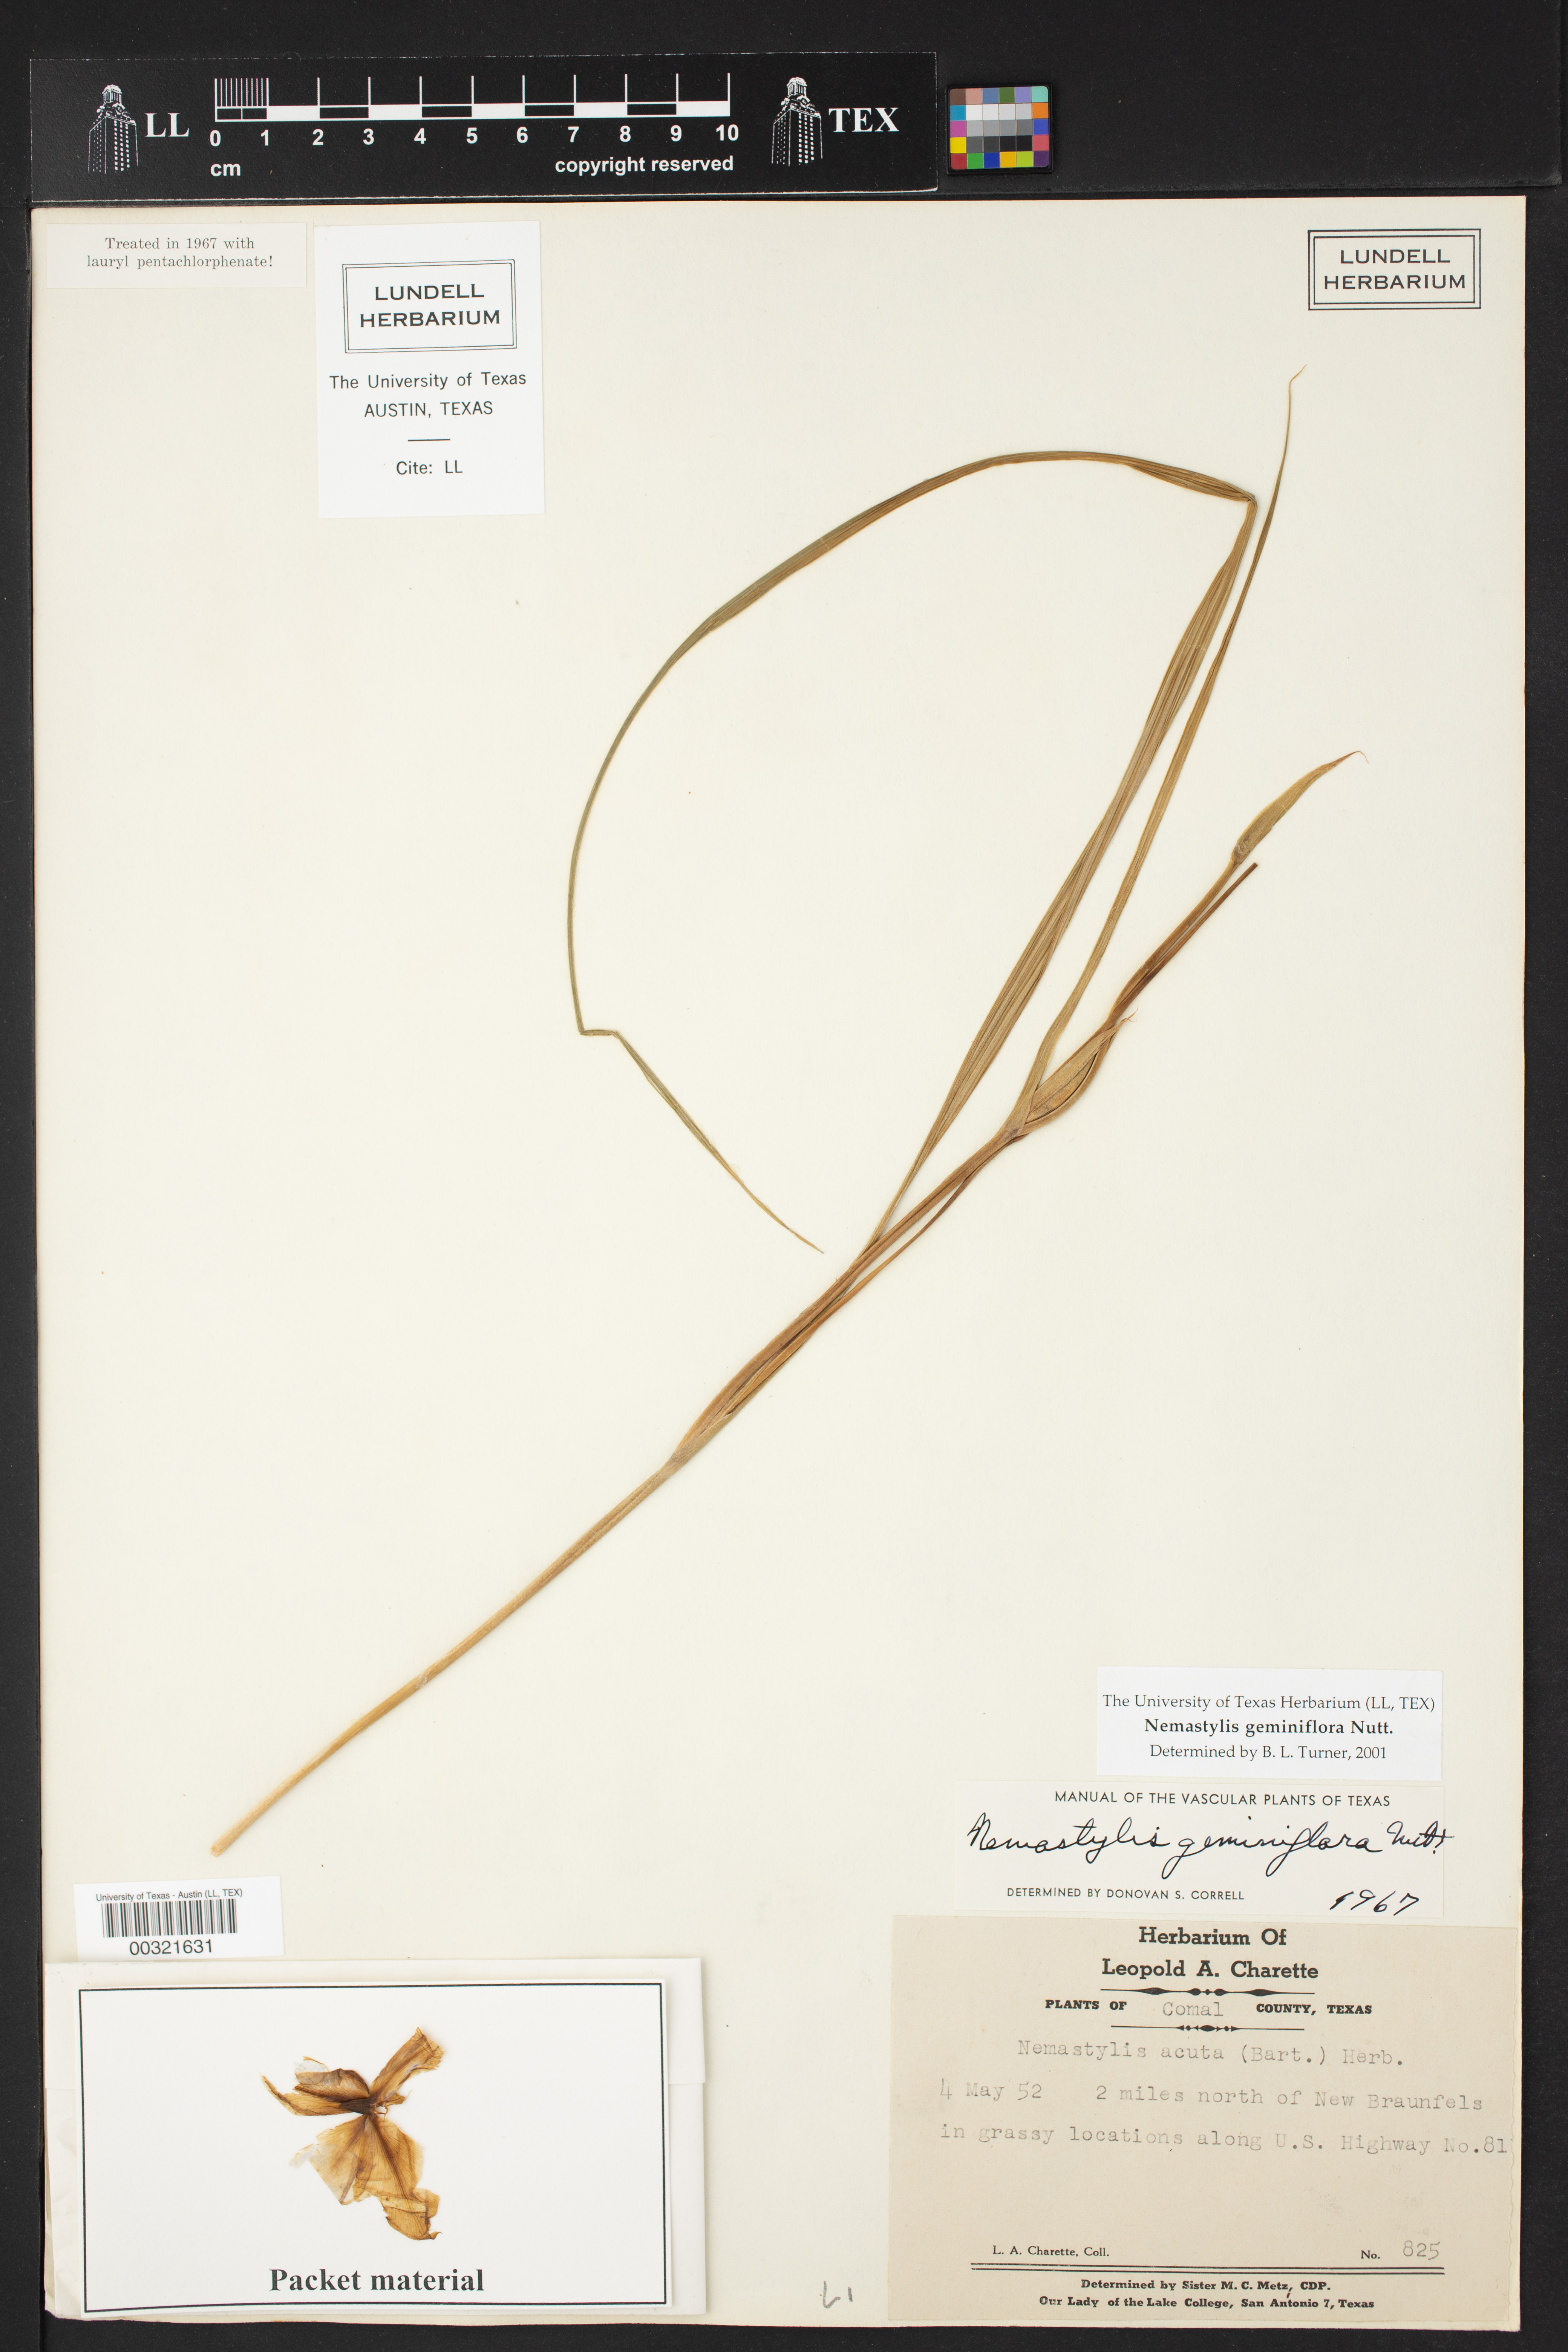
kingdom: Plantae
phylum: Tracheophyta
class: Liliopsida
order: Asparagales
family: Iridaceae
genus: Nemastylis
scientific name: Nemastylis geminiflora
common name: Prairie celestial
